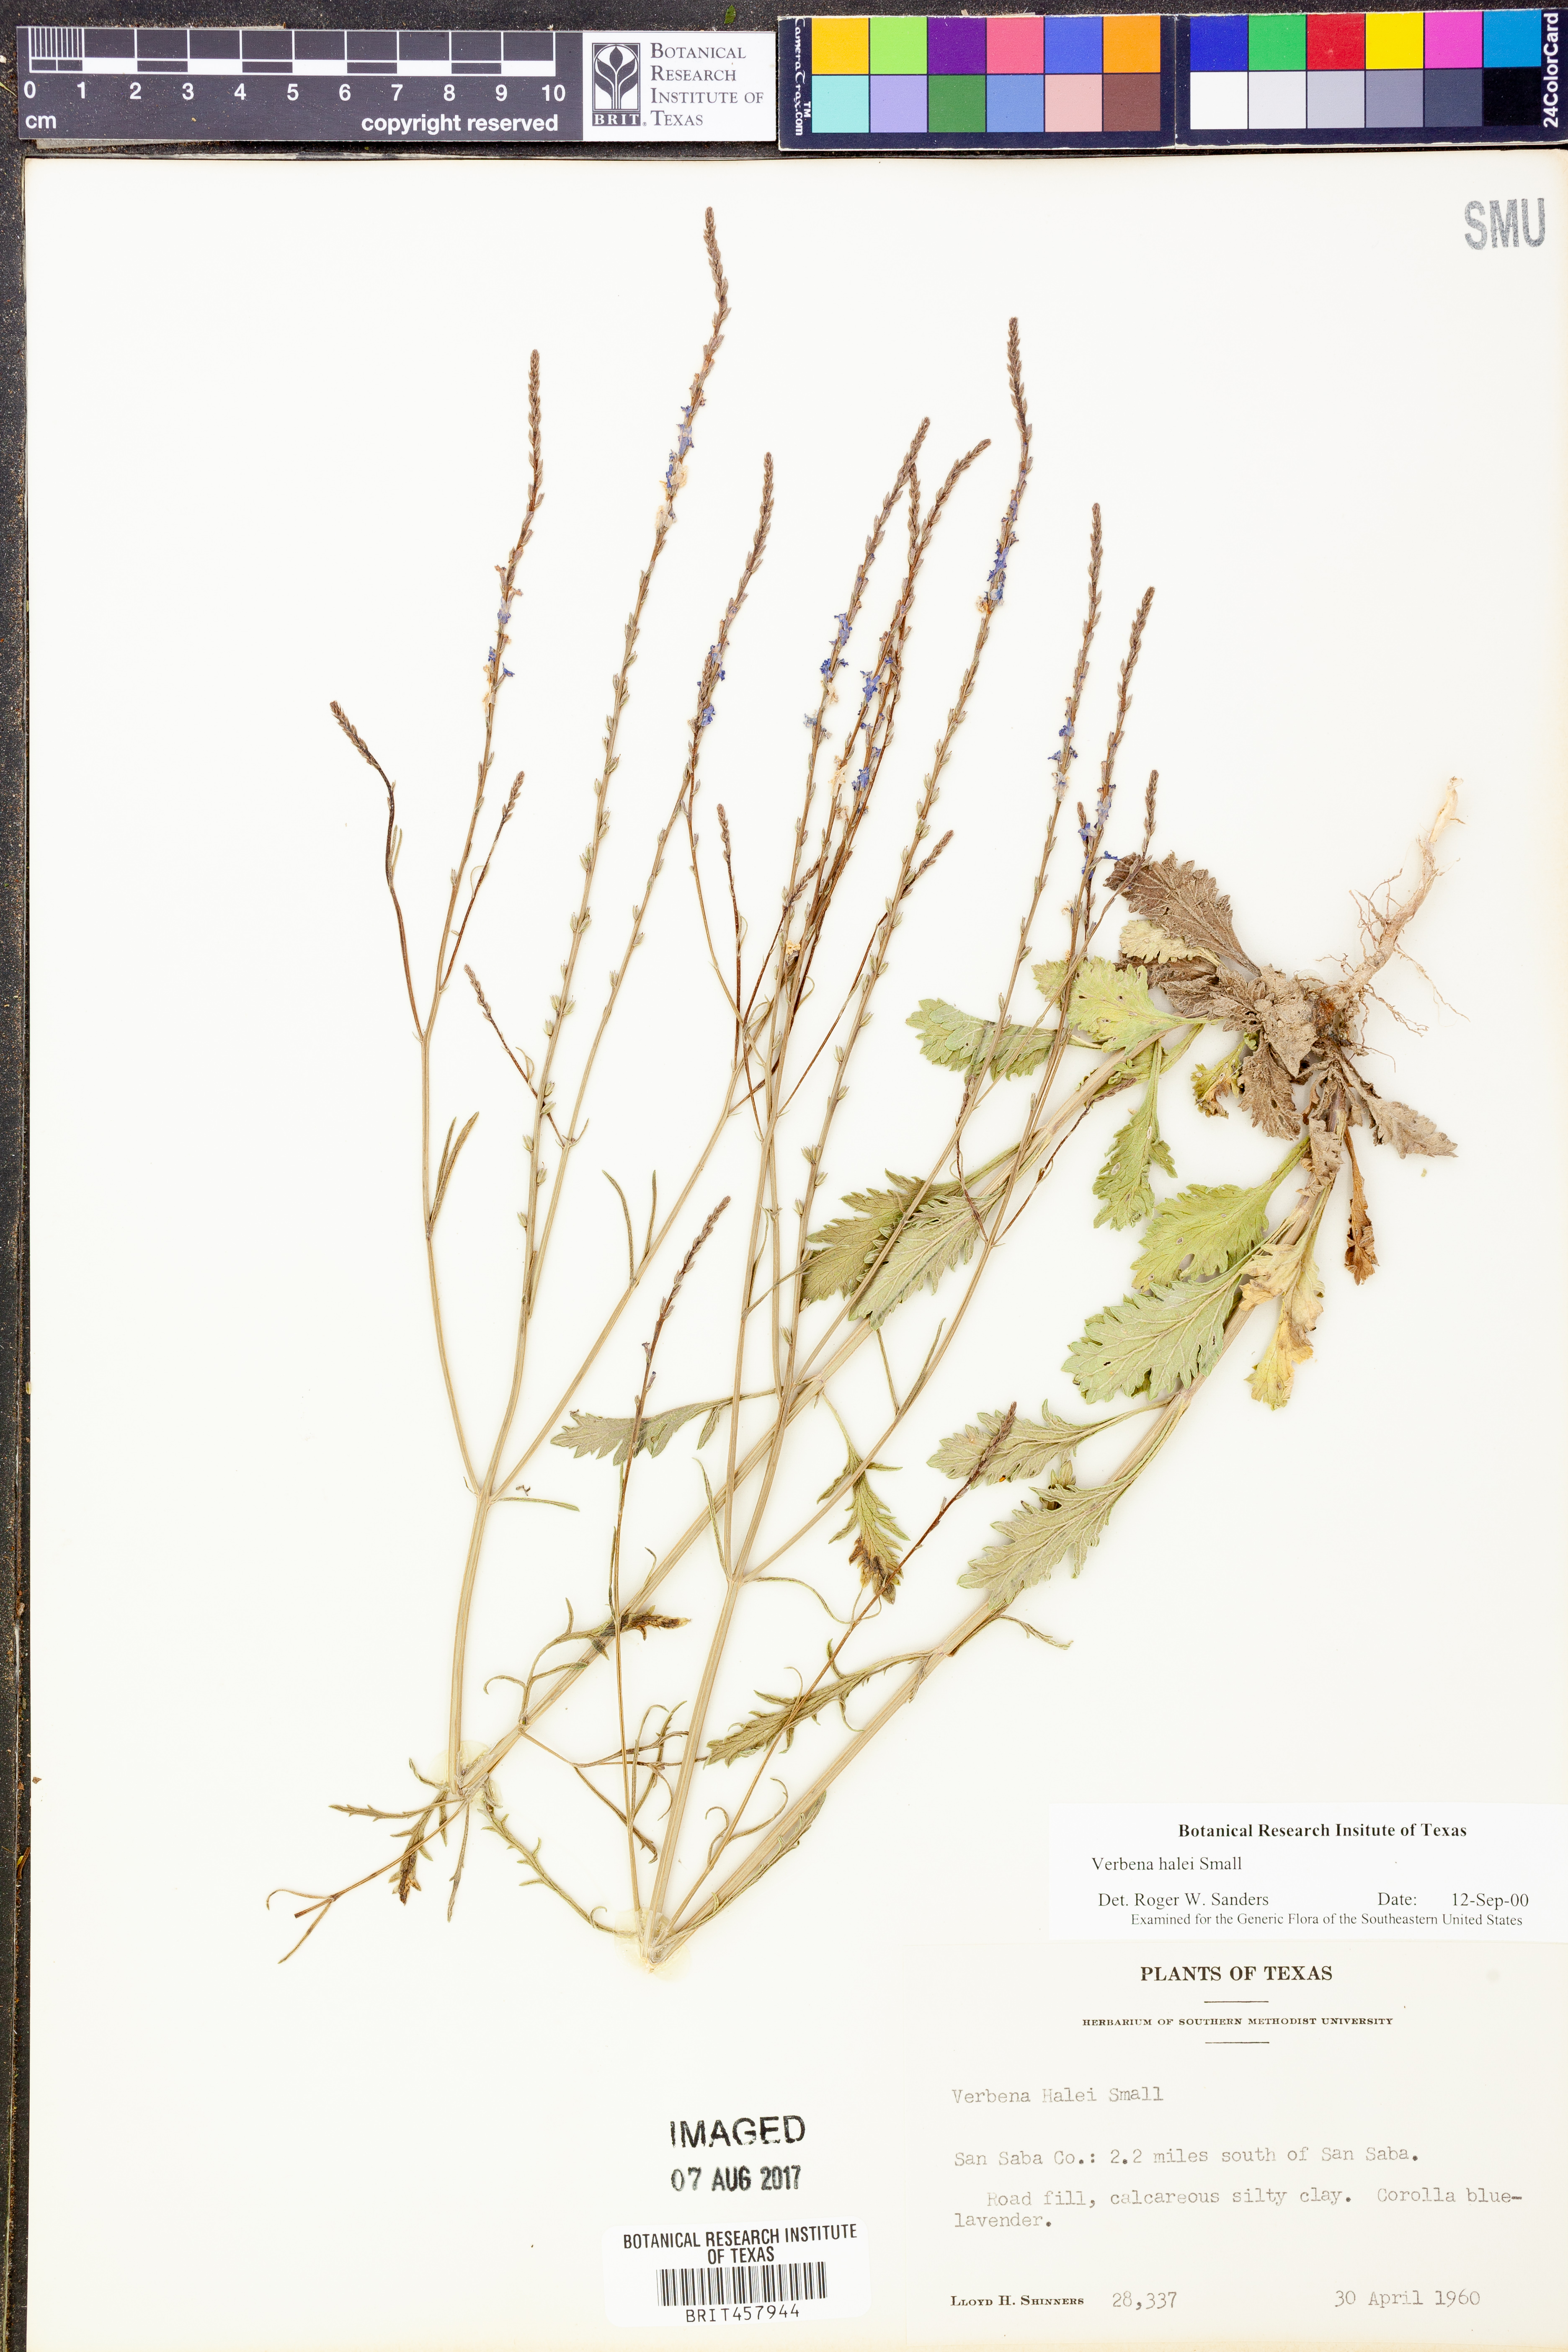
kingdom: Plantae
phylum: Tracheophyta
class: Magnoliopsida
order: Lamiales
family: Verbenaceae
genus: Verbena
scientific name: Verbena halei
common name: Texas vervain
